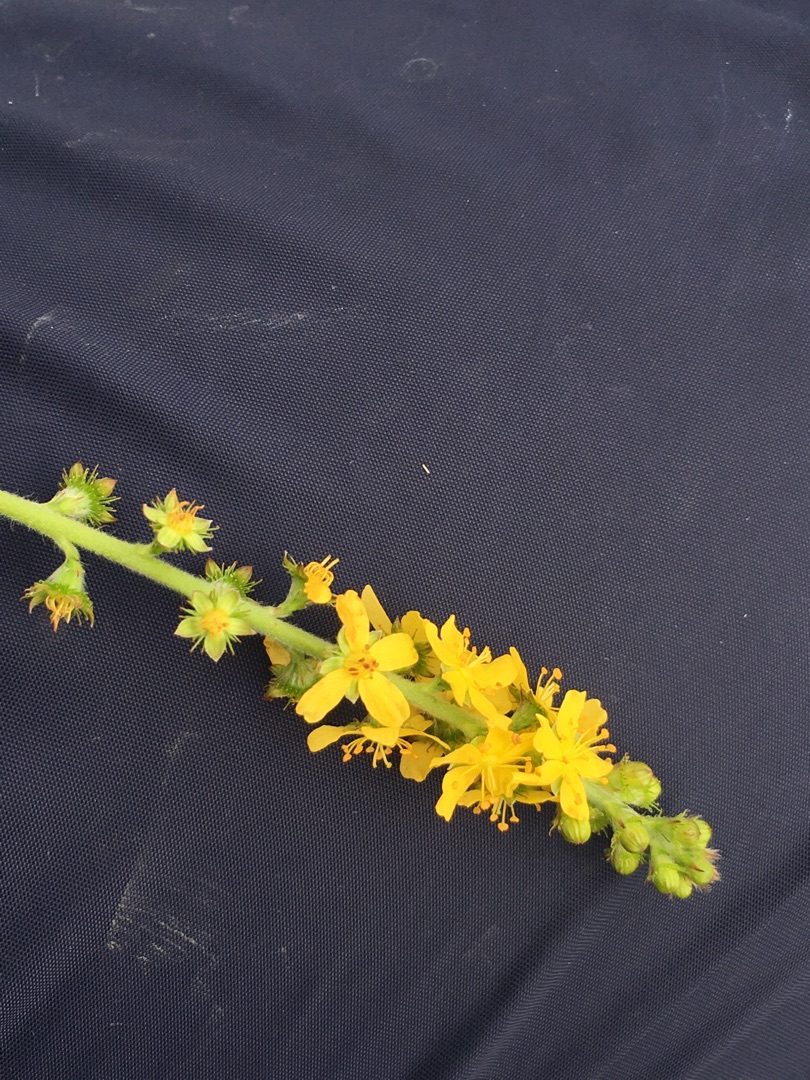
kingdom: Plantae
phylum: Tracheophyta
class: Magnoliopsida
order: Rosales
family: Rosaceae
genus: Agrimonia
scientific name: Agrimonia eupatoria
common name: Almindelig agermåne
